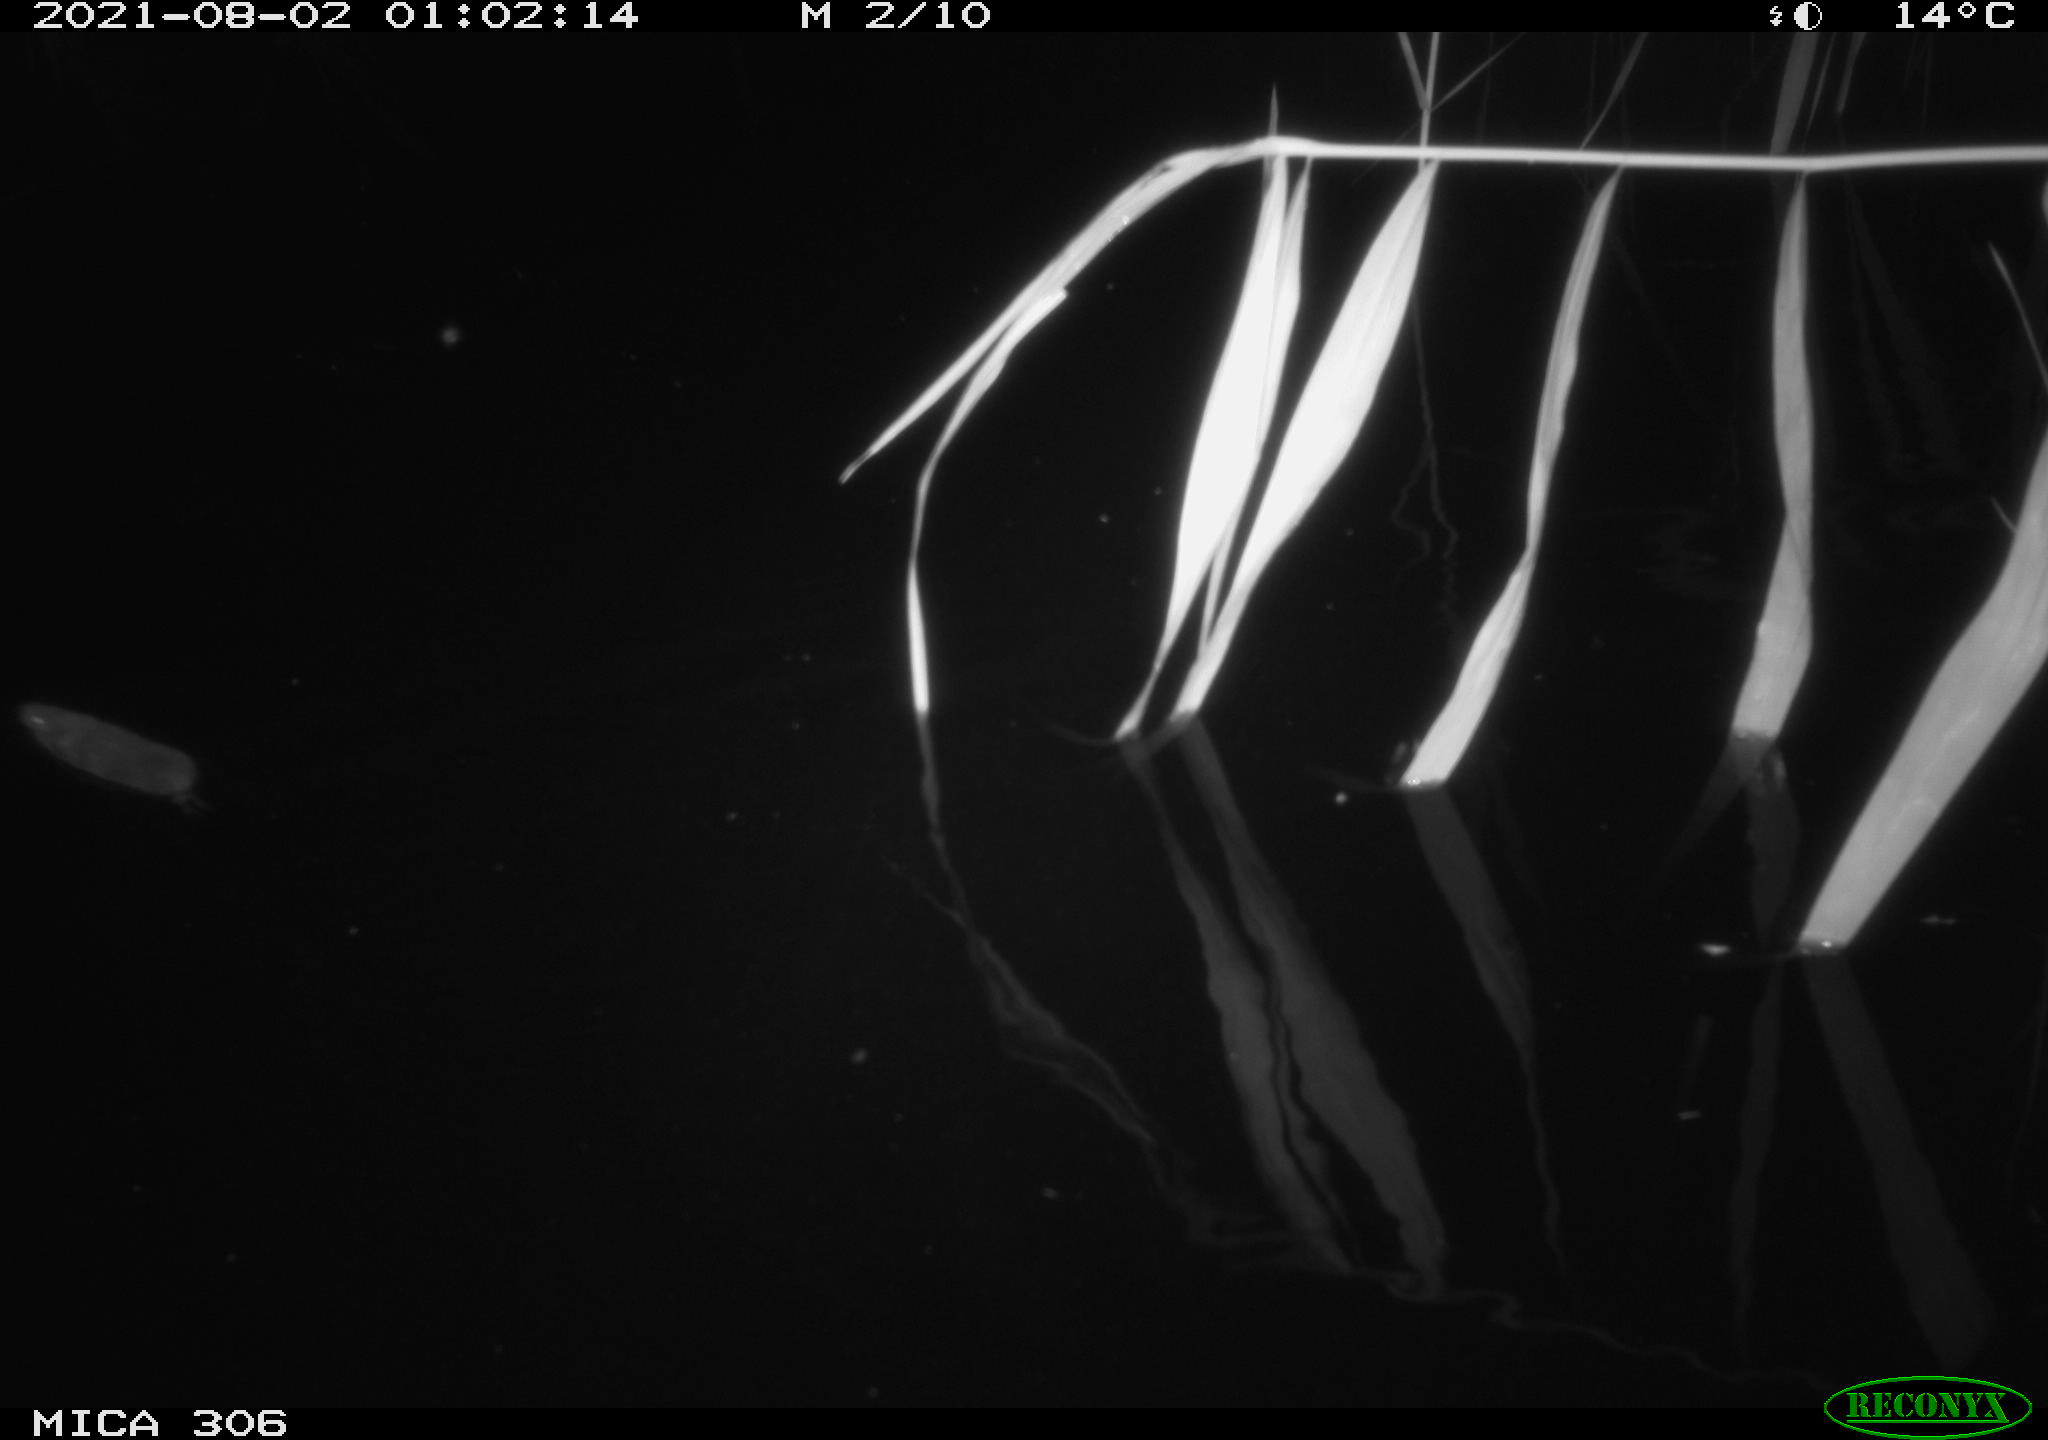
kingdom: Animalia
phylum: Chordata
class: Mammalia
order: Rodentia
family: Muridae
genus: Rattus
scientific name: Rattus norvegicus
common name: Brown rat
